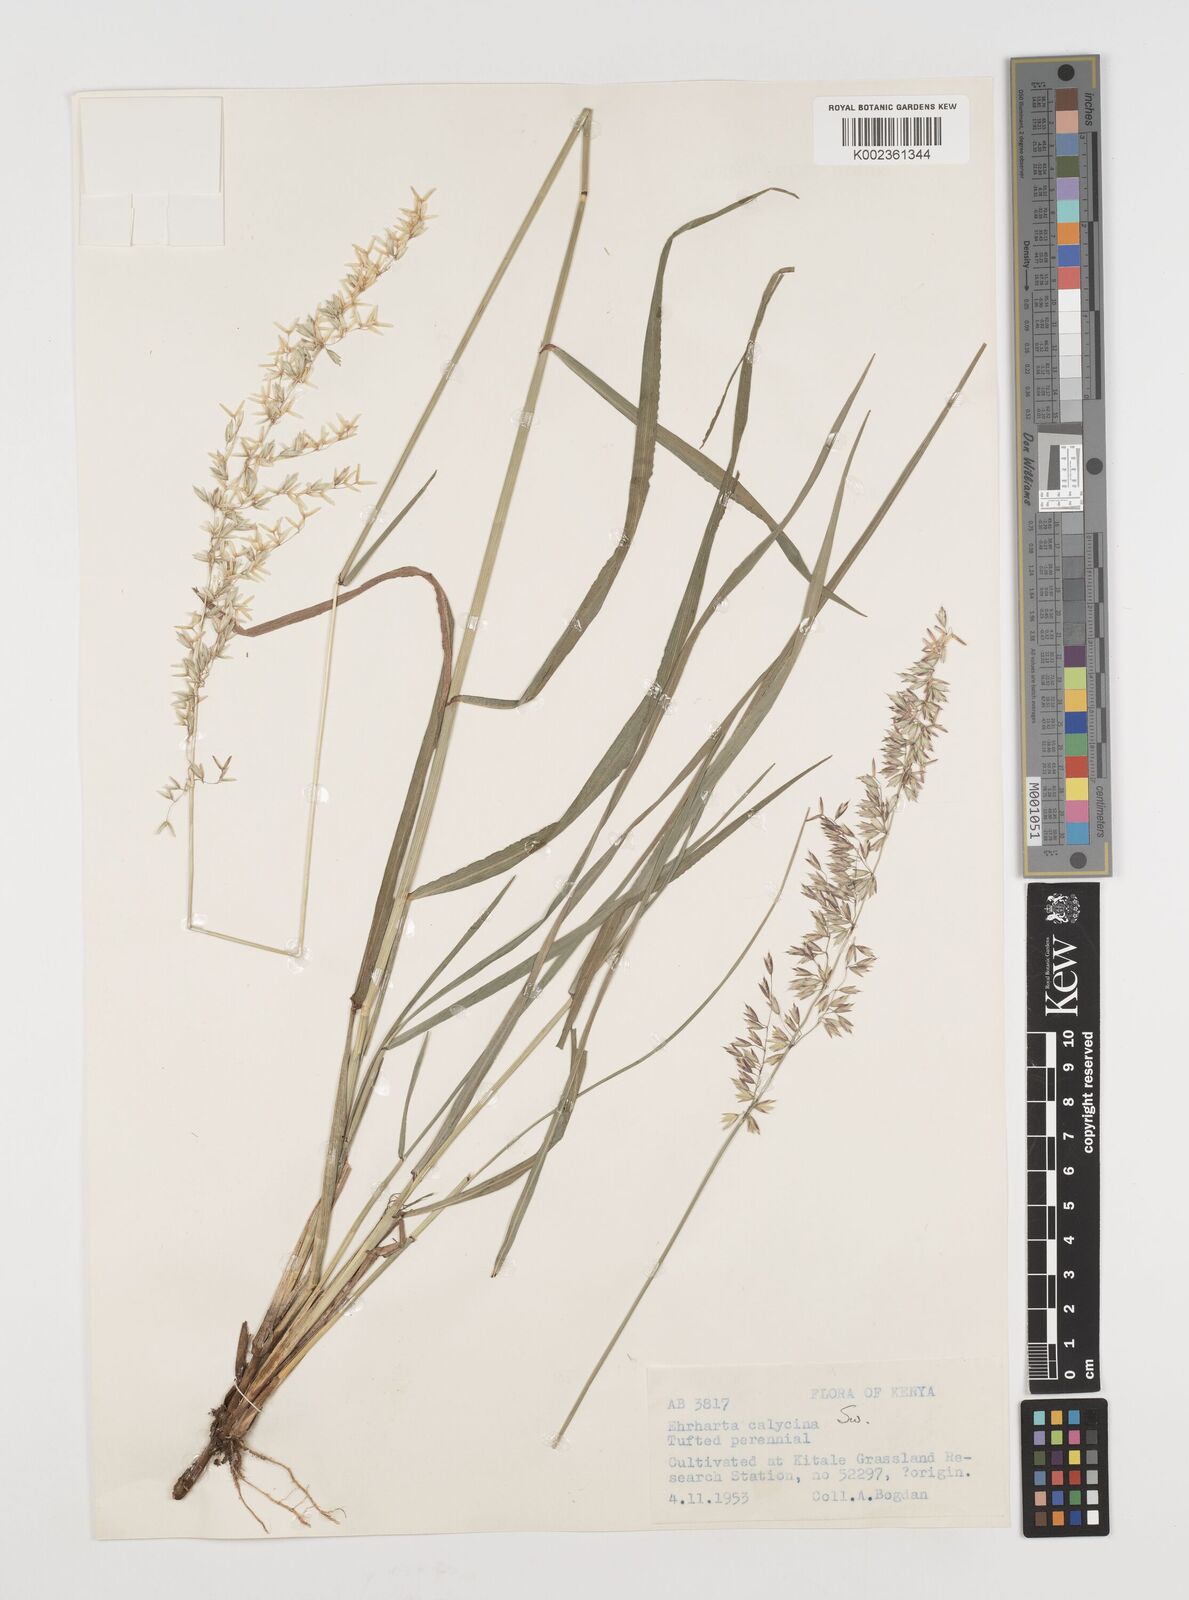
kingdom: Plantae
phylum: Tracheophyta
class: Liliopsida
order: Poales
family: Poaceae
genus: Ehrharta
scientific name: Ehrharta calycina
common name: Perennial veldtgrass
